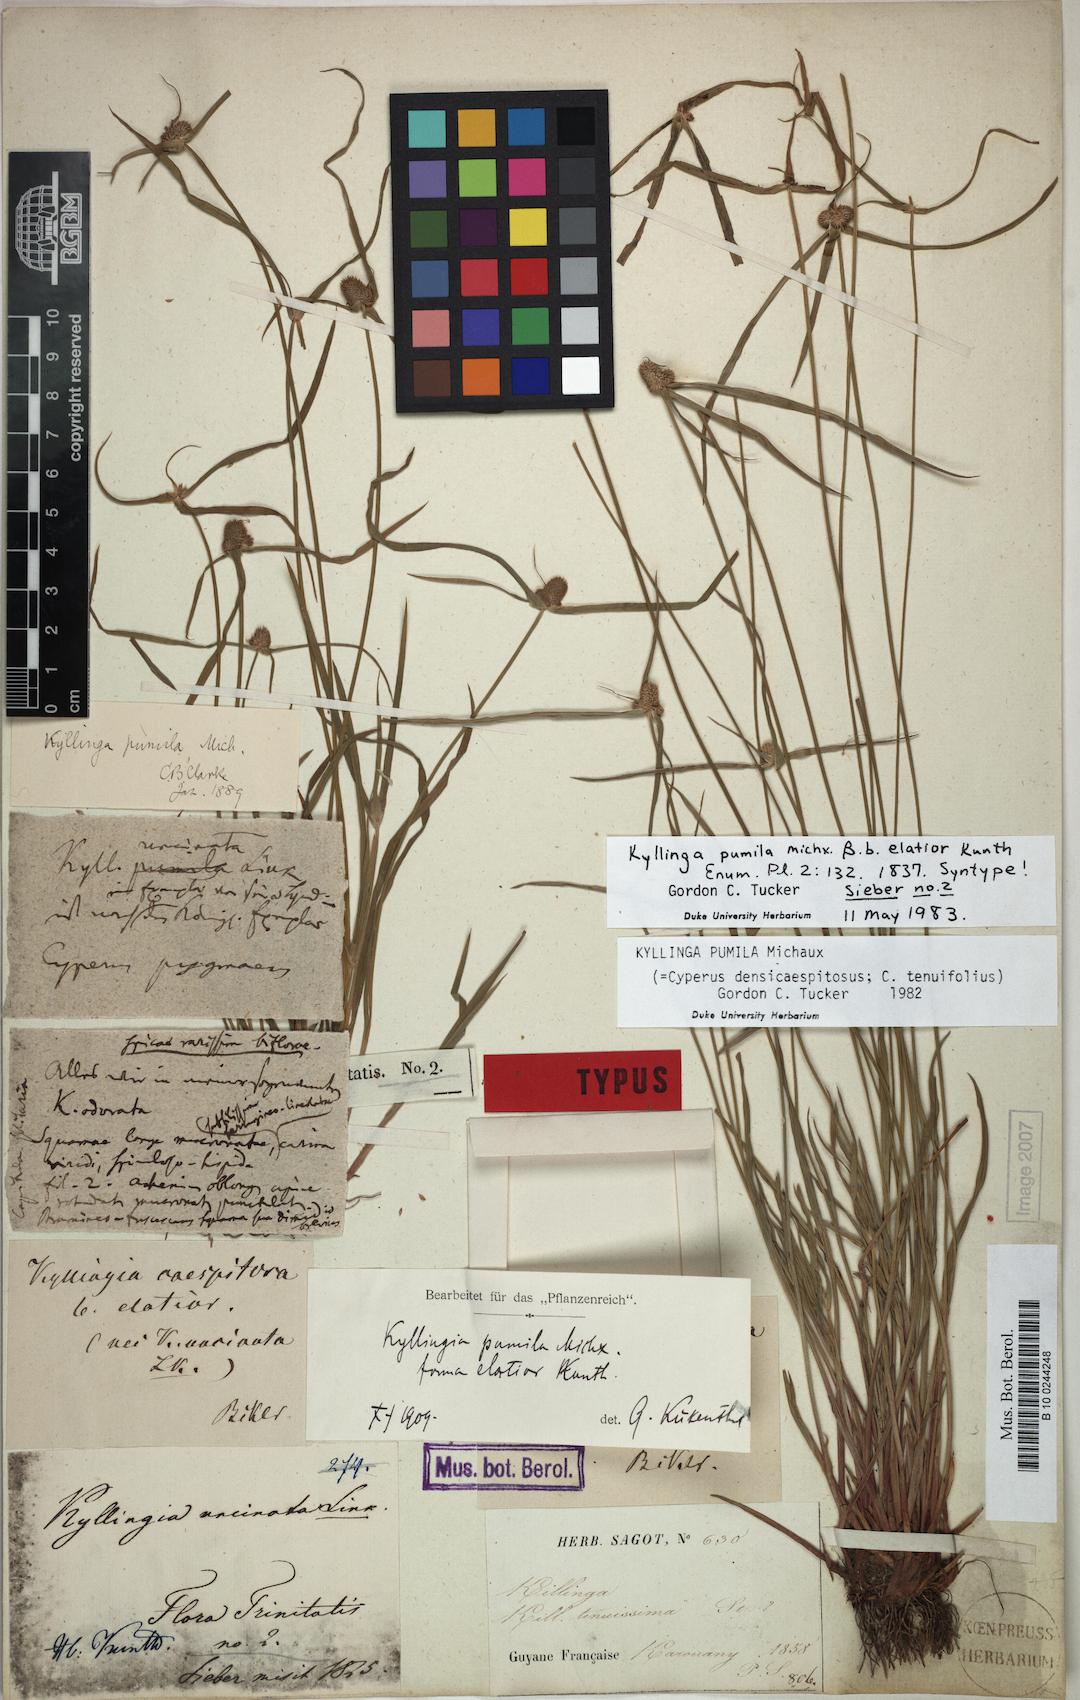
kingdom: Plantae
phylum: Tracheophyta
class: Liliopsida
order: Poales
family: Cyperaceae
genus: Cyperus
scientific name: Cyperus hortensis
